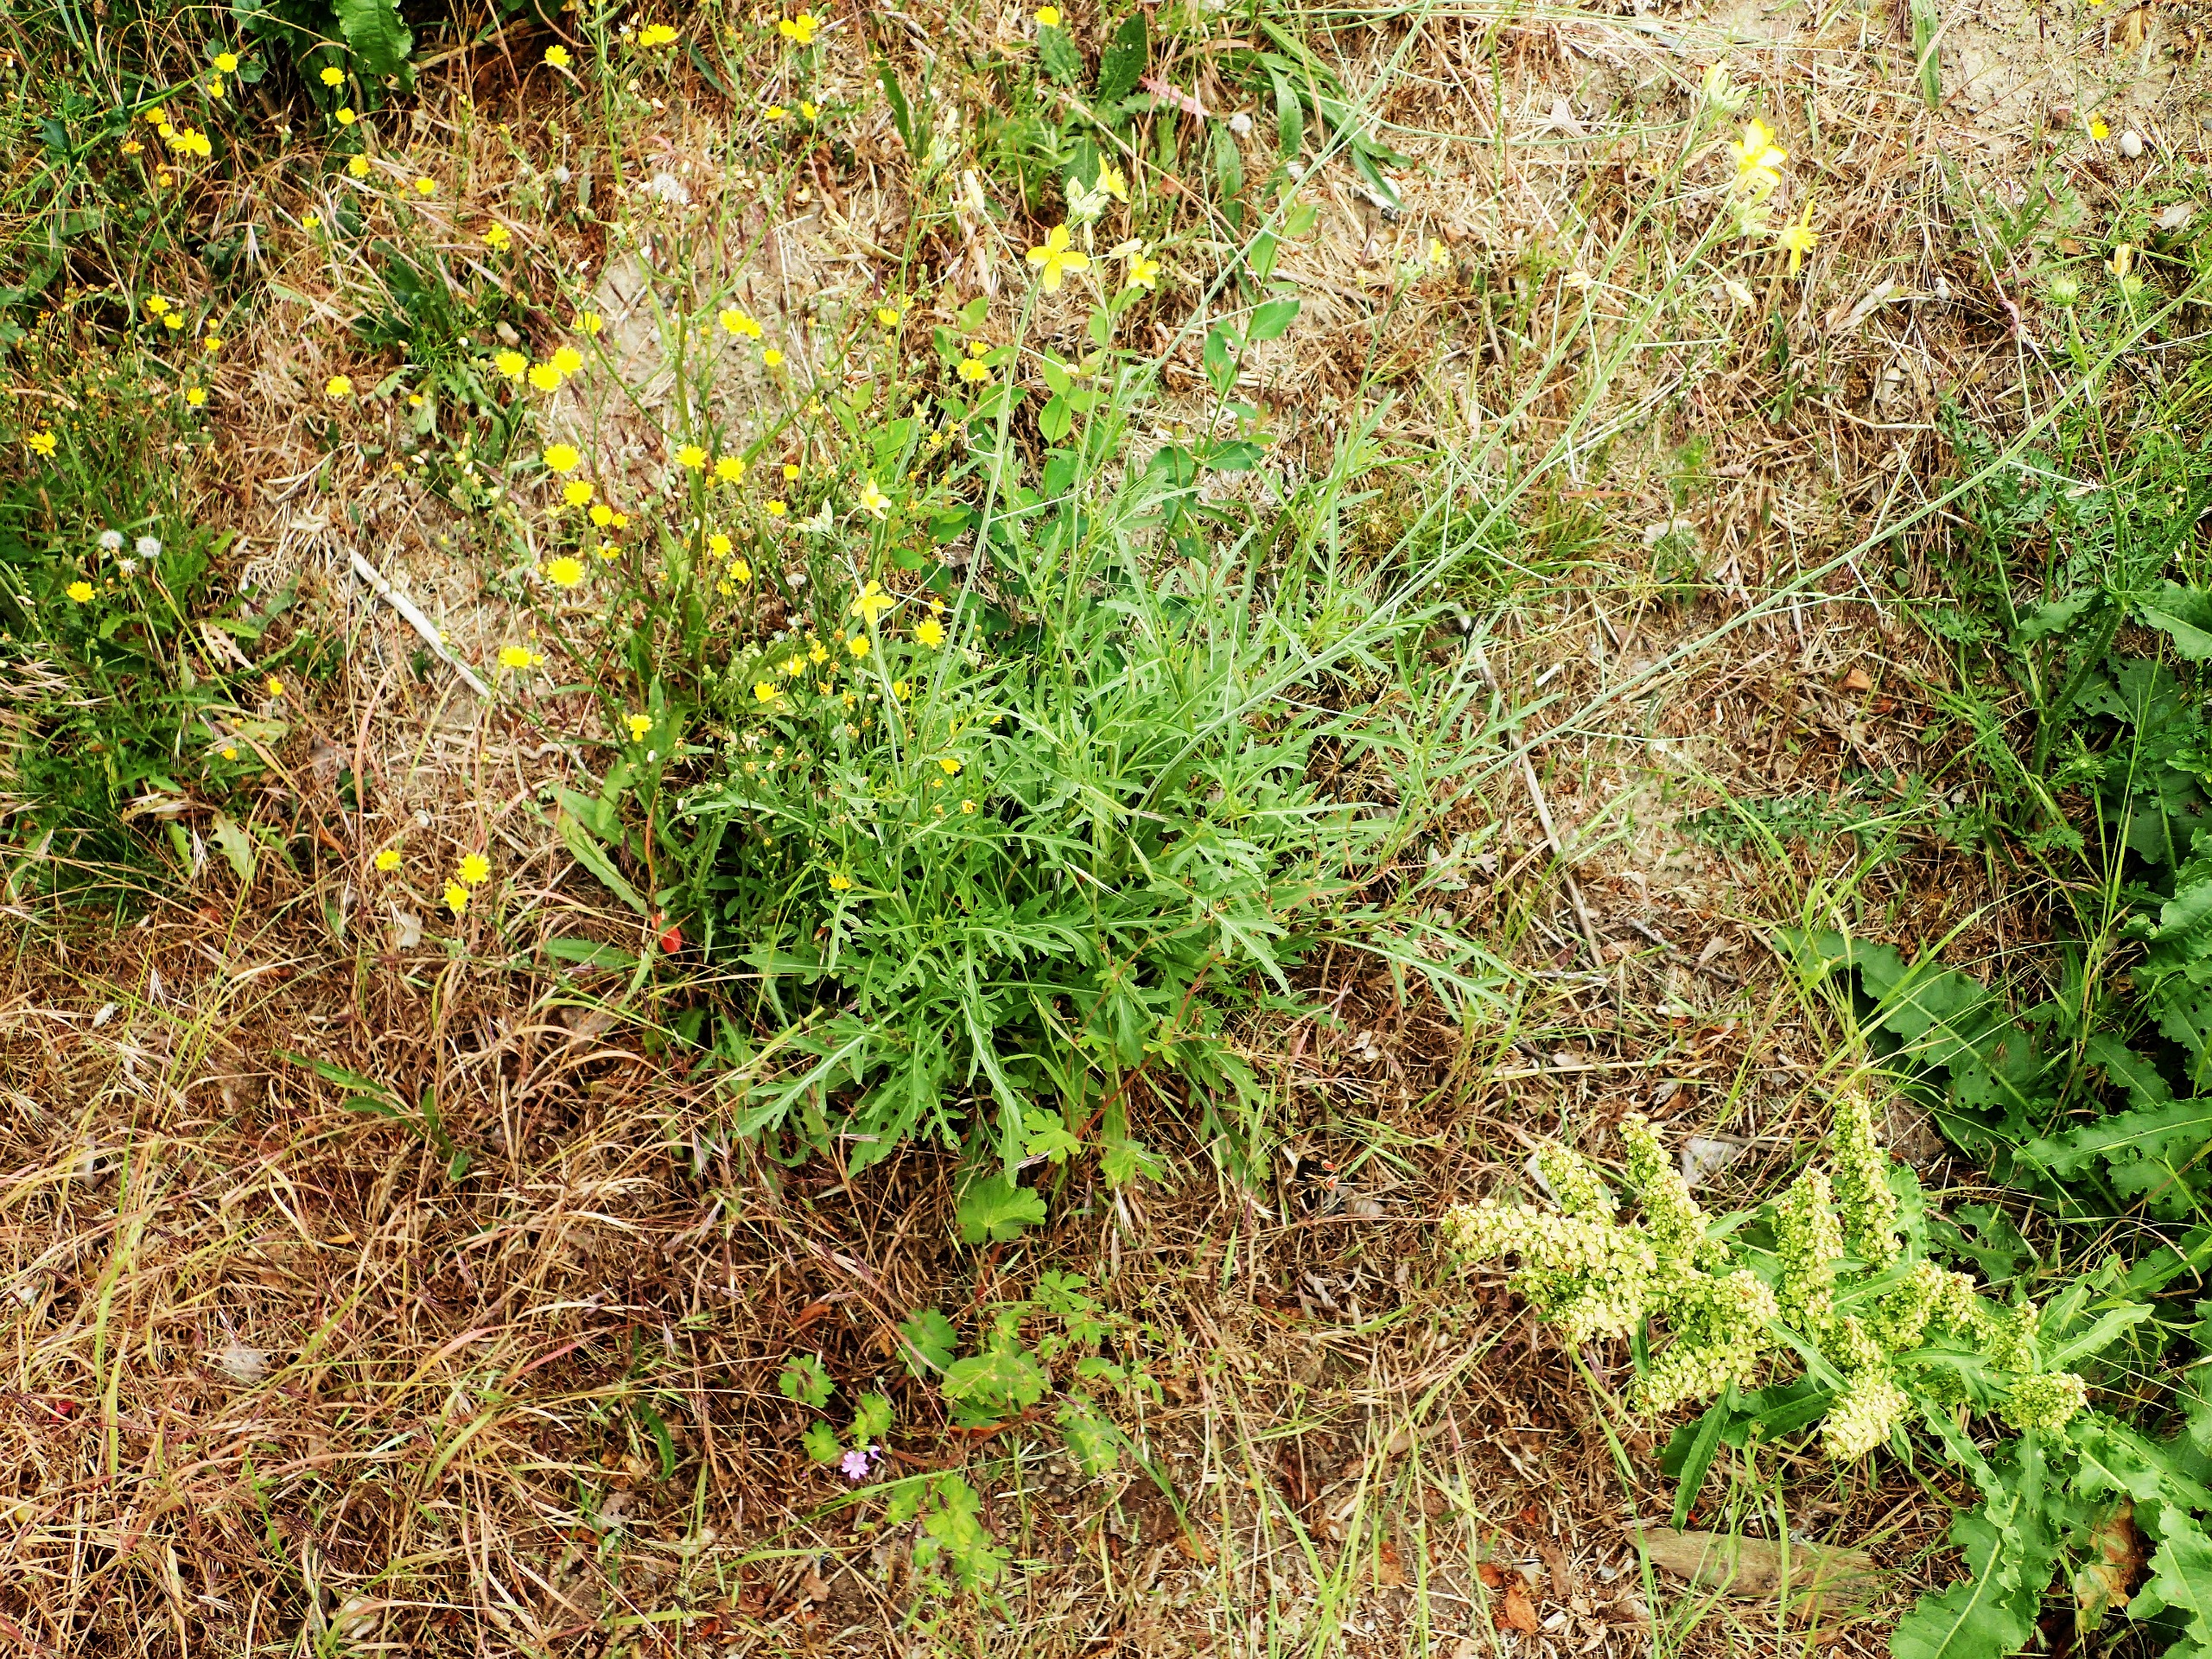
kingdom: Plantae
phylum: Tracheophyta
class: Magnoliopsida
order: Brassicales
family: Brassicaceae
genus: Diplotaxis
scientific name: Diplotaxis tenuifolia
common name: Sandsennep
